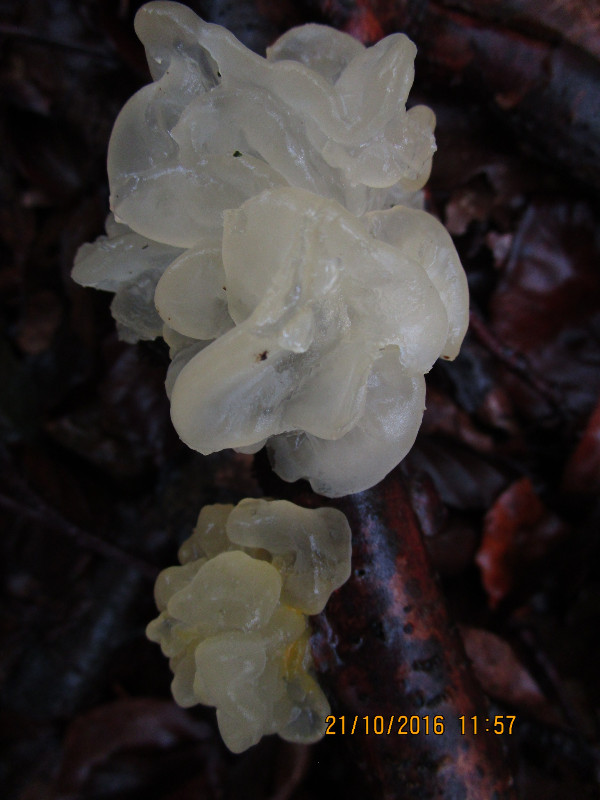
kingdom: Fungi
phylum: Basidiomycota
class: Tremellomycetes
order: Tremellales
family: Tremellaceae
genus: Tremella
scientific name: Tremella mesenterica
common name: gul bævresvamp
